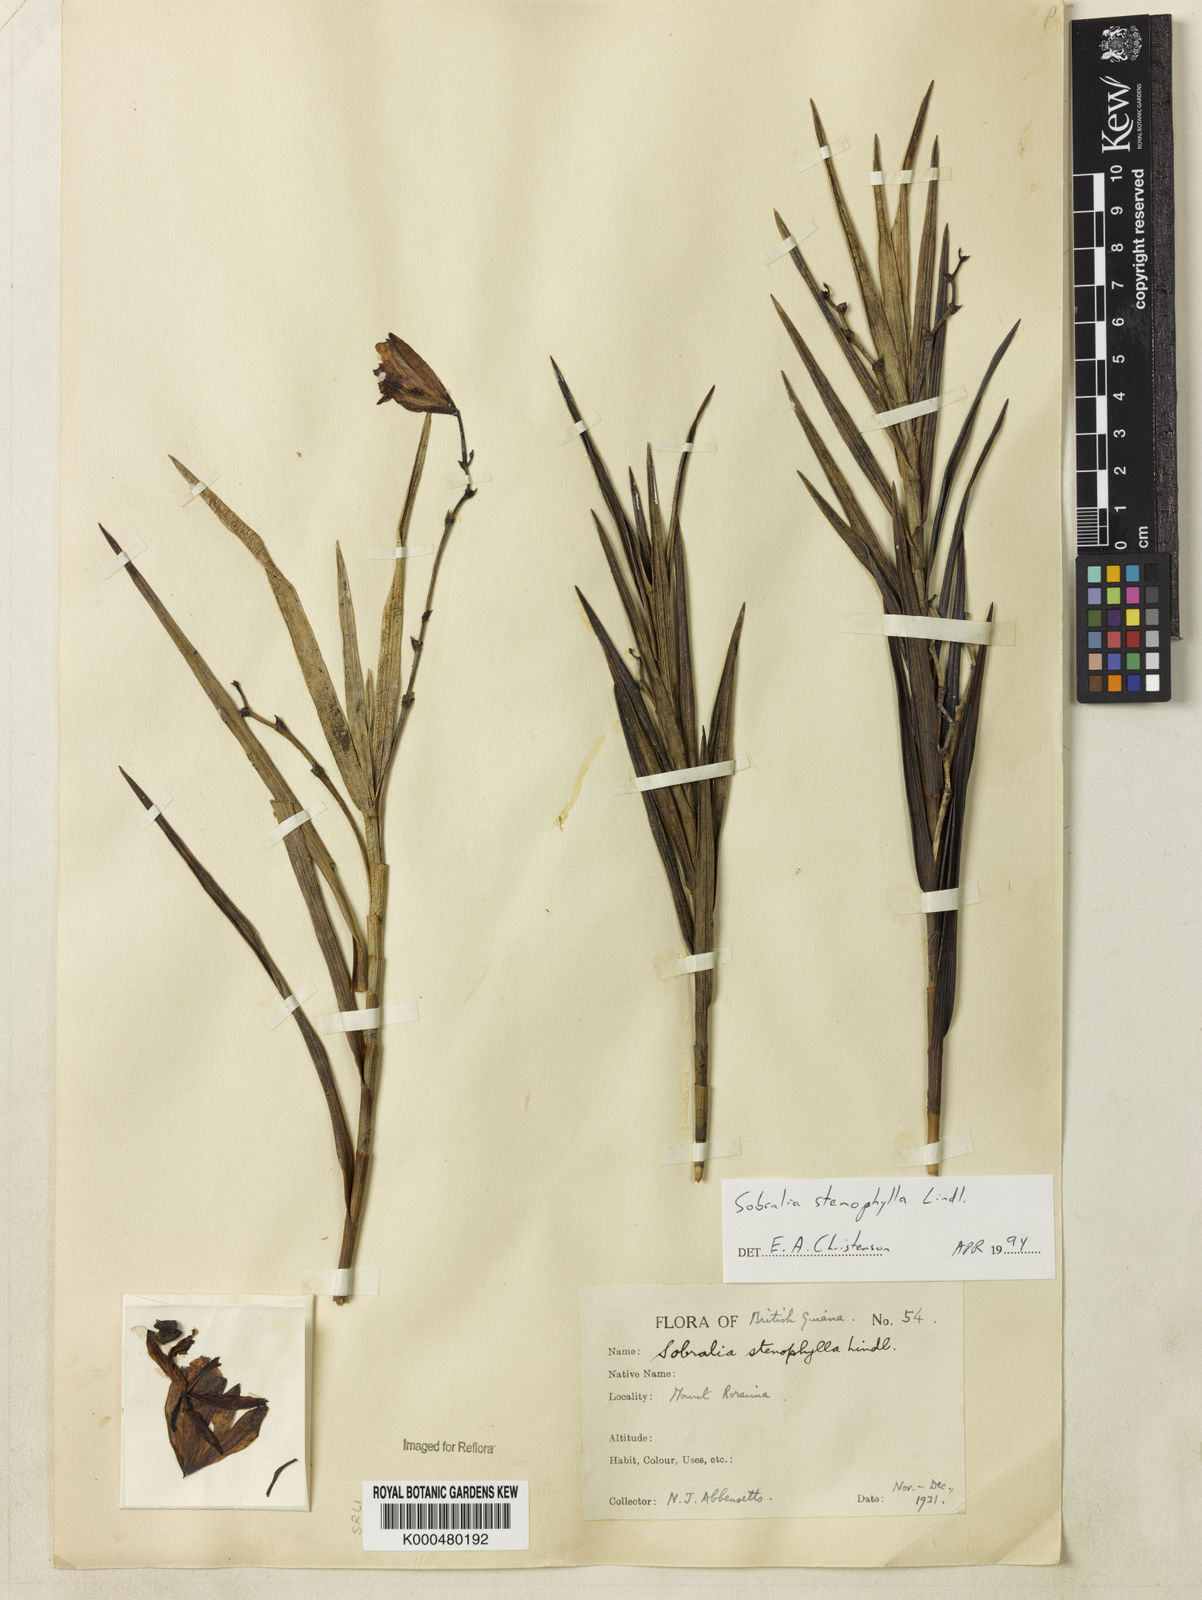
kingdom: Plantae
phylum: Tracheophyta
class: Liliopsida
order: Asparagales
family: Orchidaceae
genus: Sobralia
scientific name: Sobralia stenophylla
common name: Thin leafed sobralia
